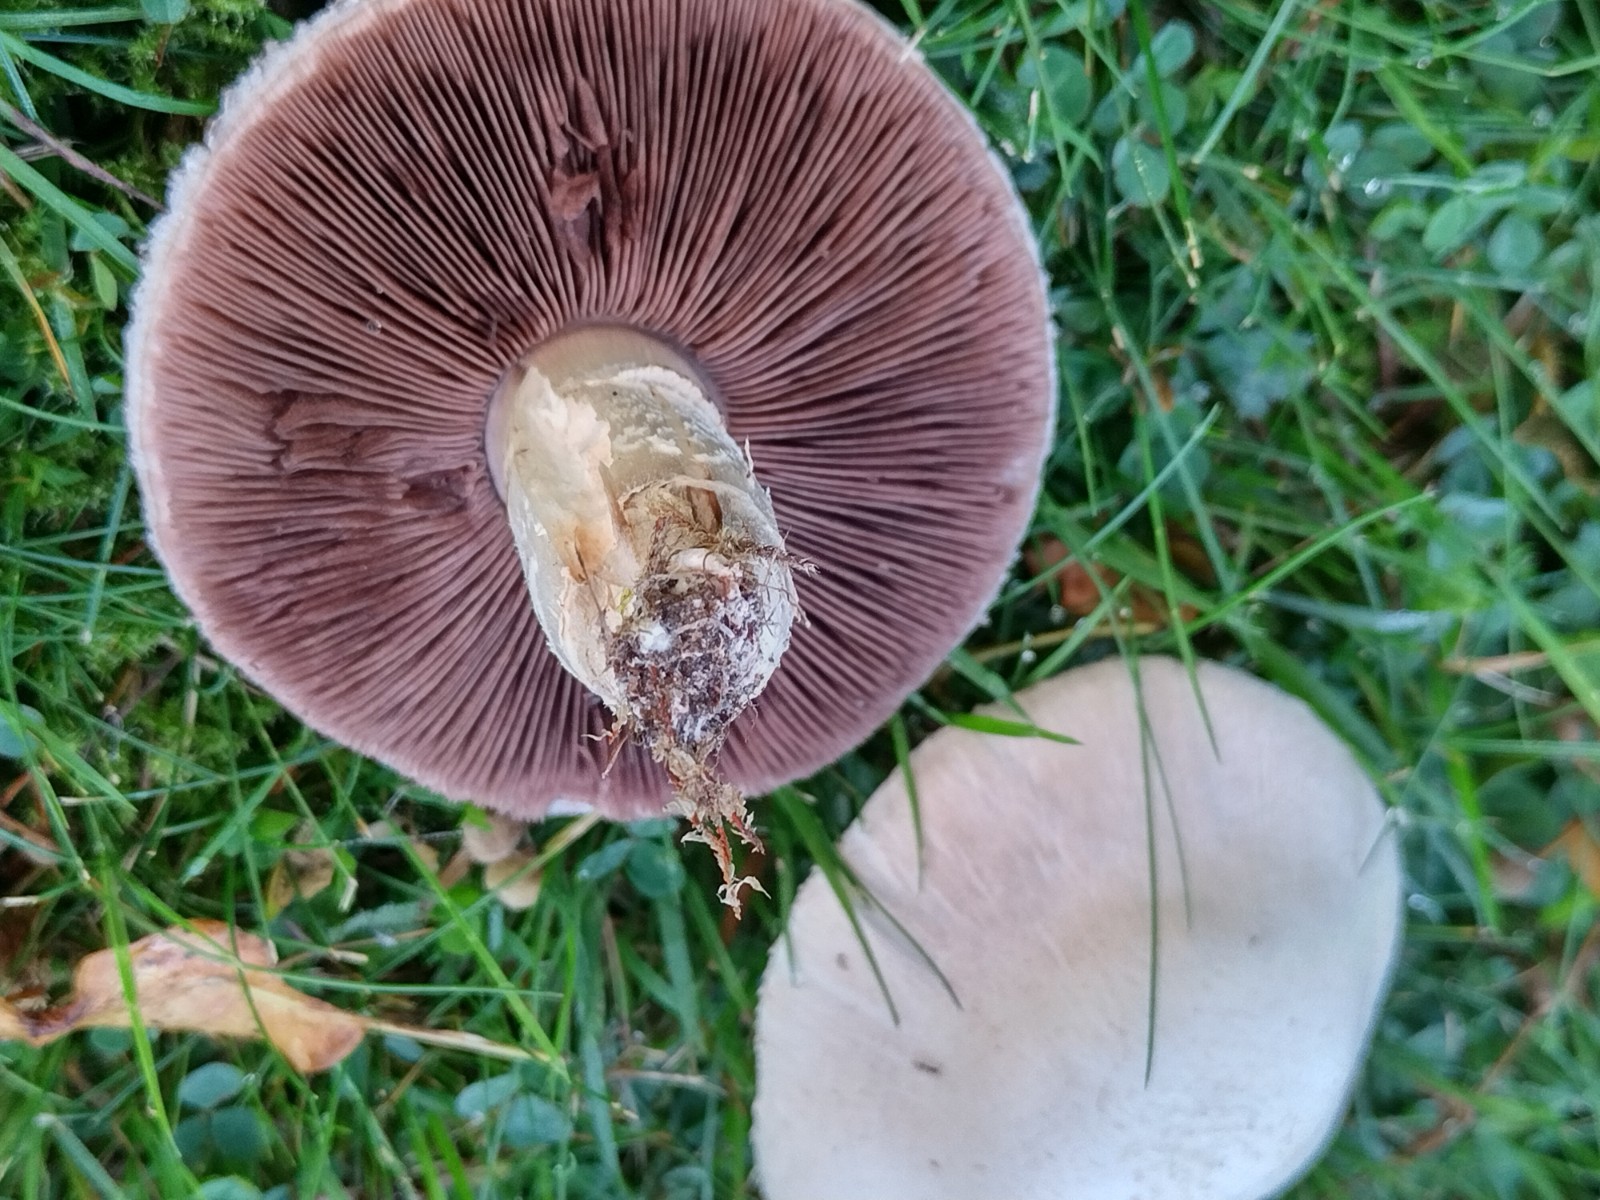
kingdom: Fungi
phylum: Basidiomycota
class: Agaricomycetes
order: Agaricales
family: Agaricaceae
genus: Agaricus
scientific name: Agaricus campestris
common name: mark-champignon
